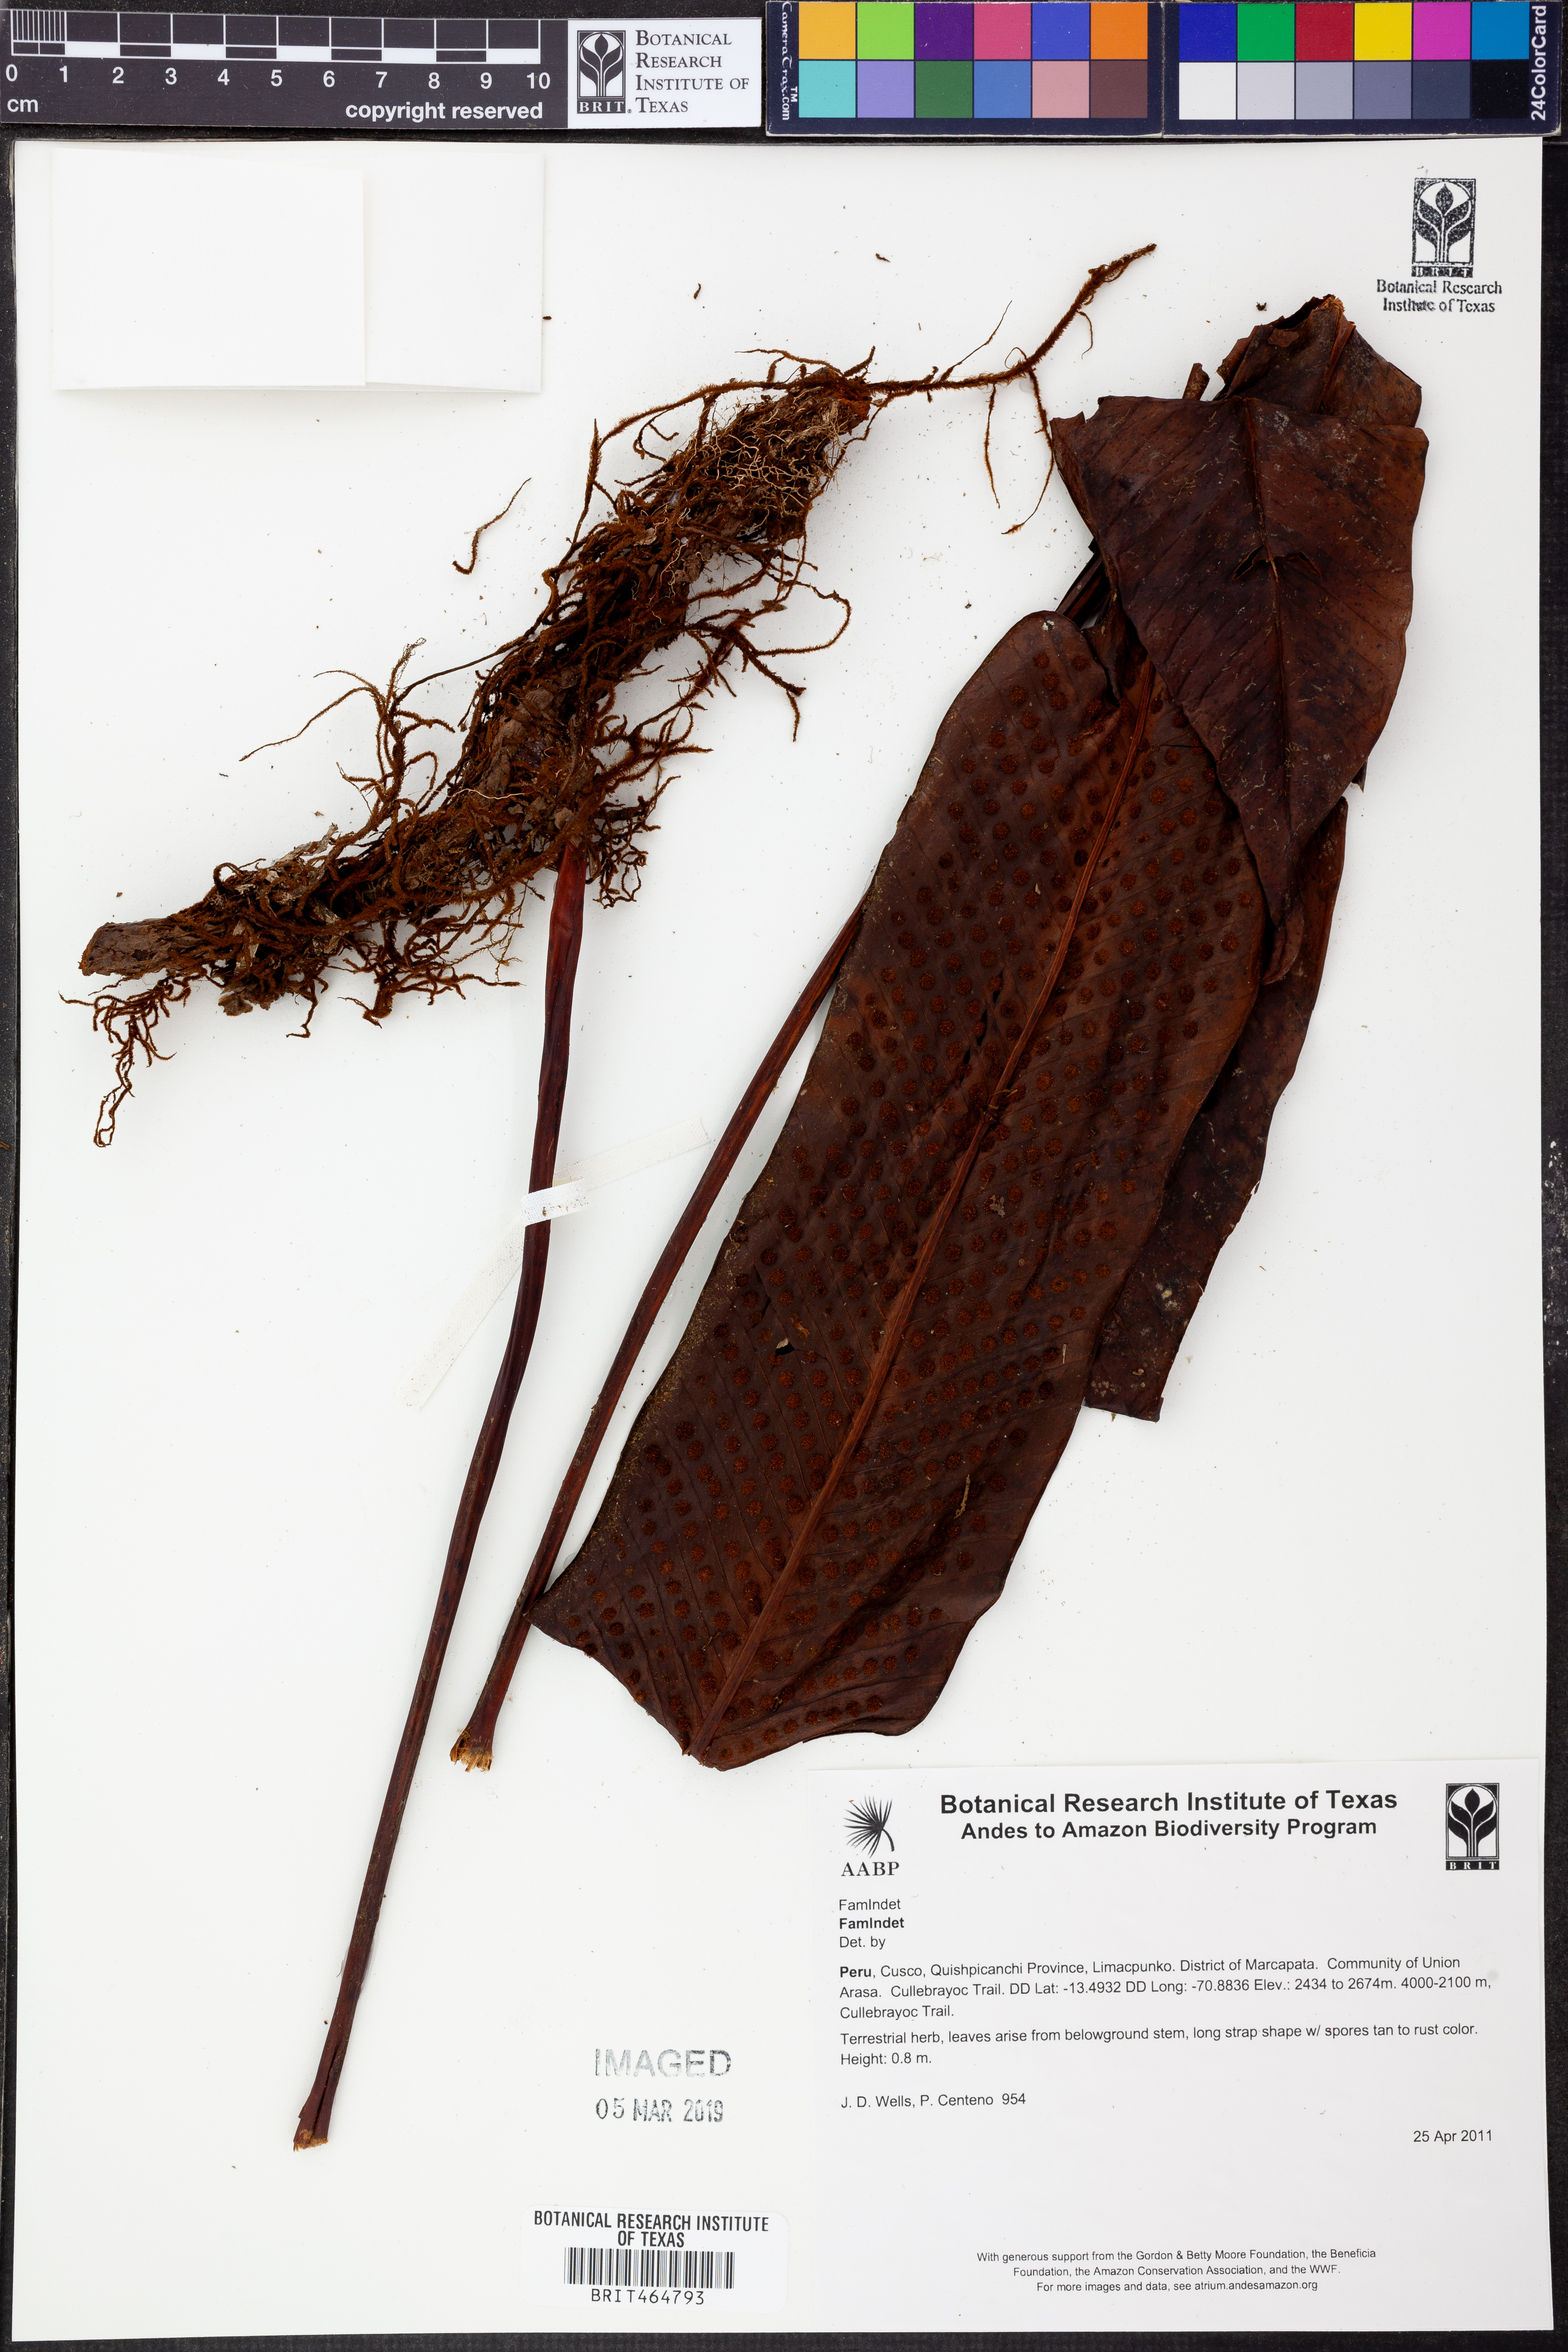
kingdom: Plantae
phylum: Tracheophyta
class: Polypodiopsida
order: Polypodiales
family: Polypodiaceae
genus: Niphidium
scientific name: Niphidium
